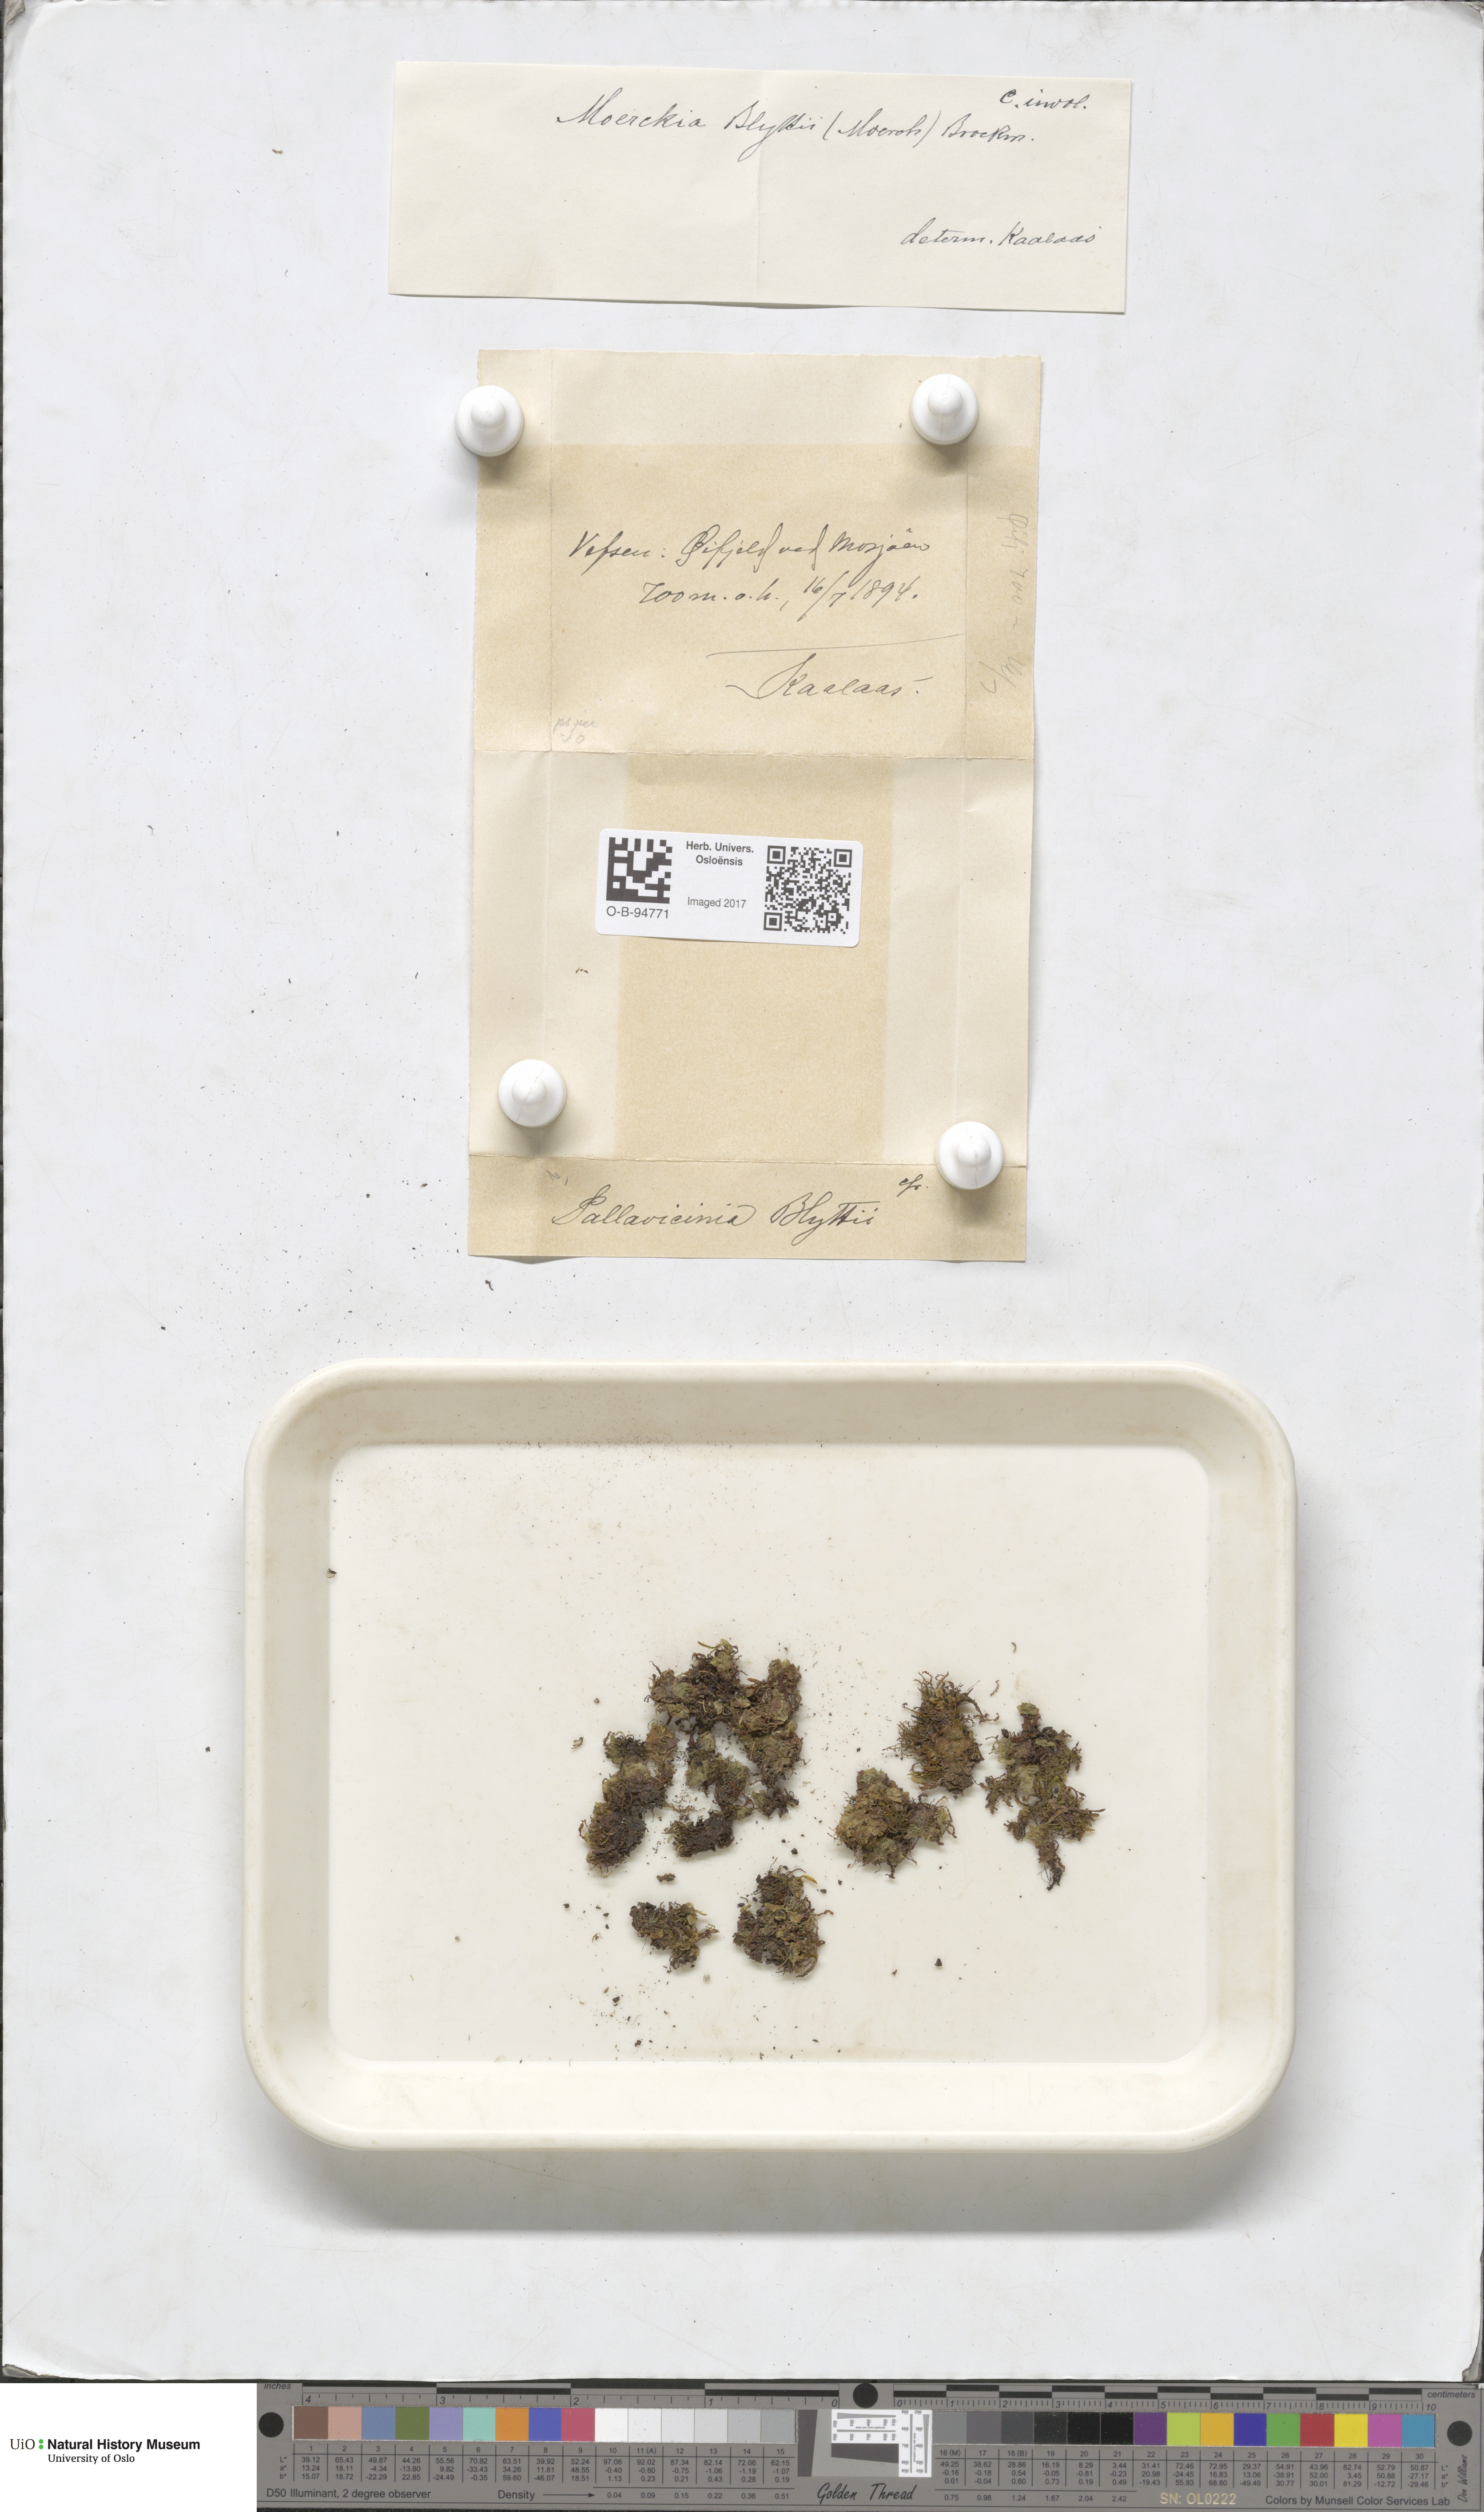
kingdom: Plantae
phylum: Marchantiophyta
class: Jungermanniopsida
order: Pallaviciniales
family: Pseudomoerckiaceae
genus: Pseudomoerckia
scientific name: Pseudomoerckia blyttii
